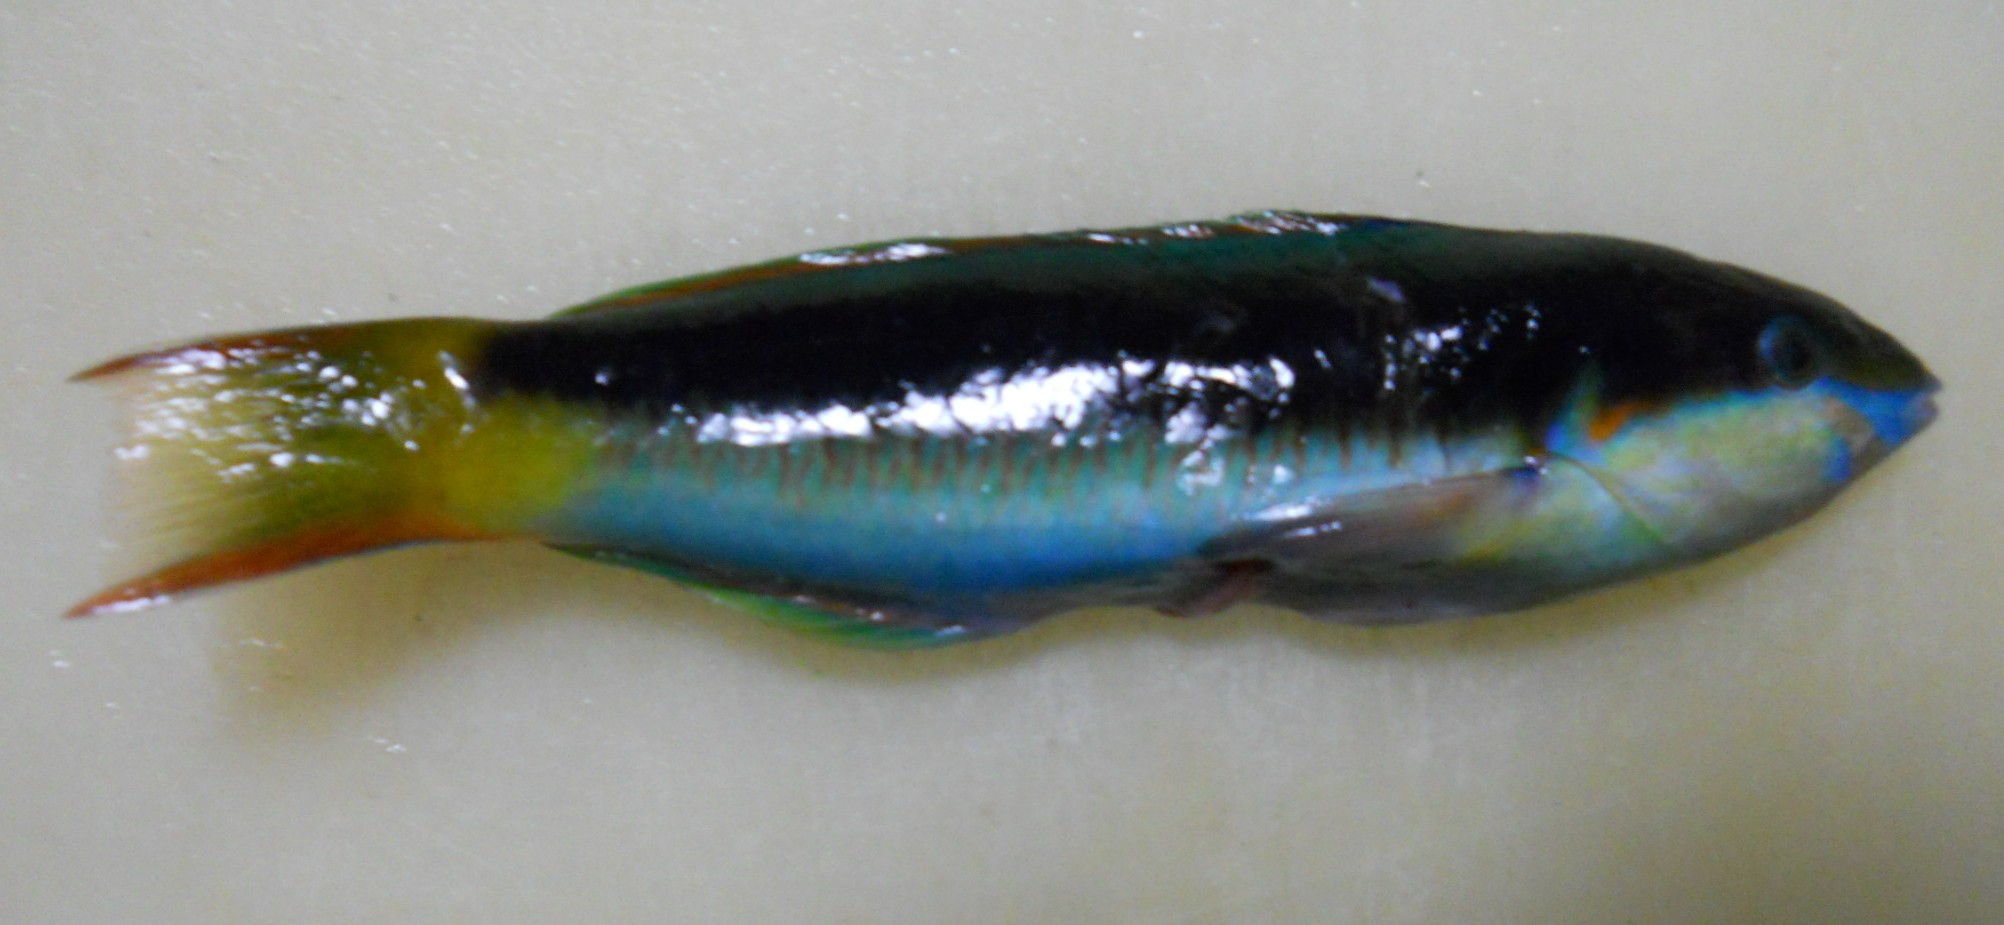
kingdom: Animalia
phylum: Chordata
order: Perciformes
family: Labridae
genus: Thalassoma
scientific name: Thalassoma genivittatum
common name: Red-cheek wrasse
